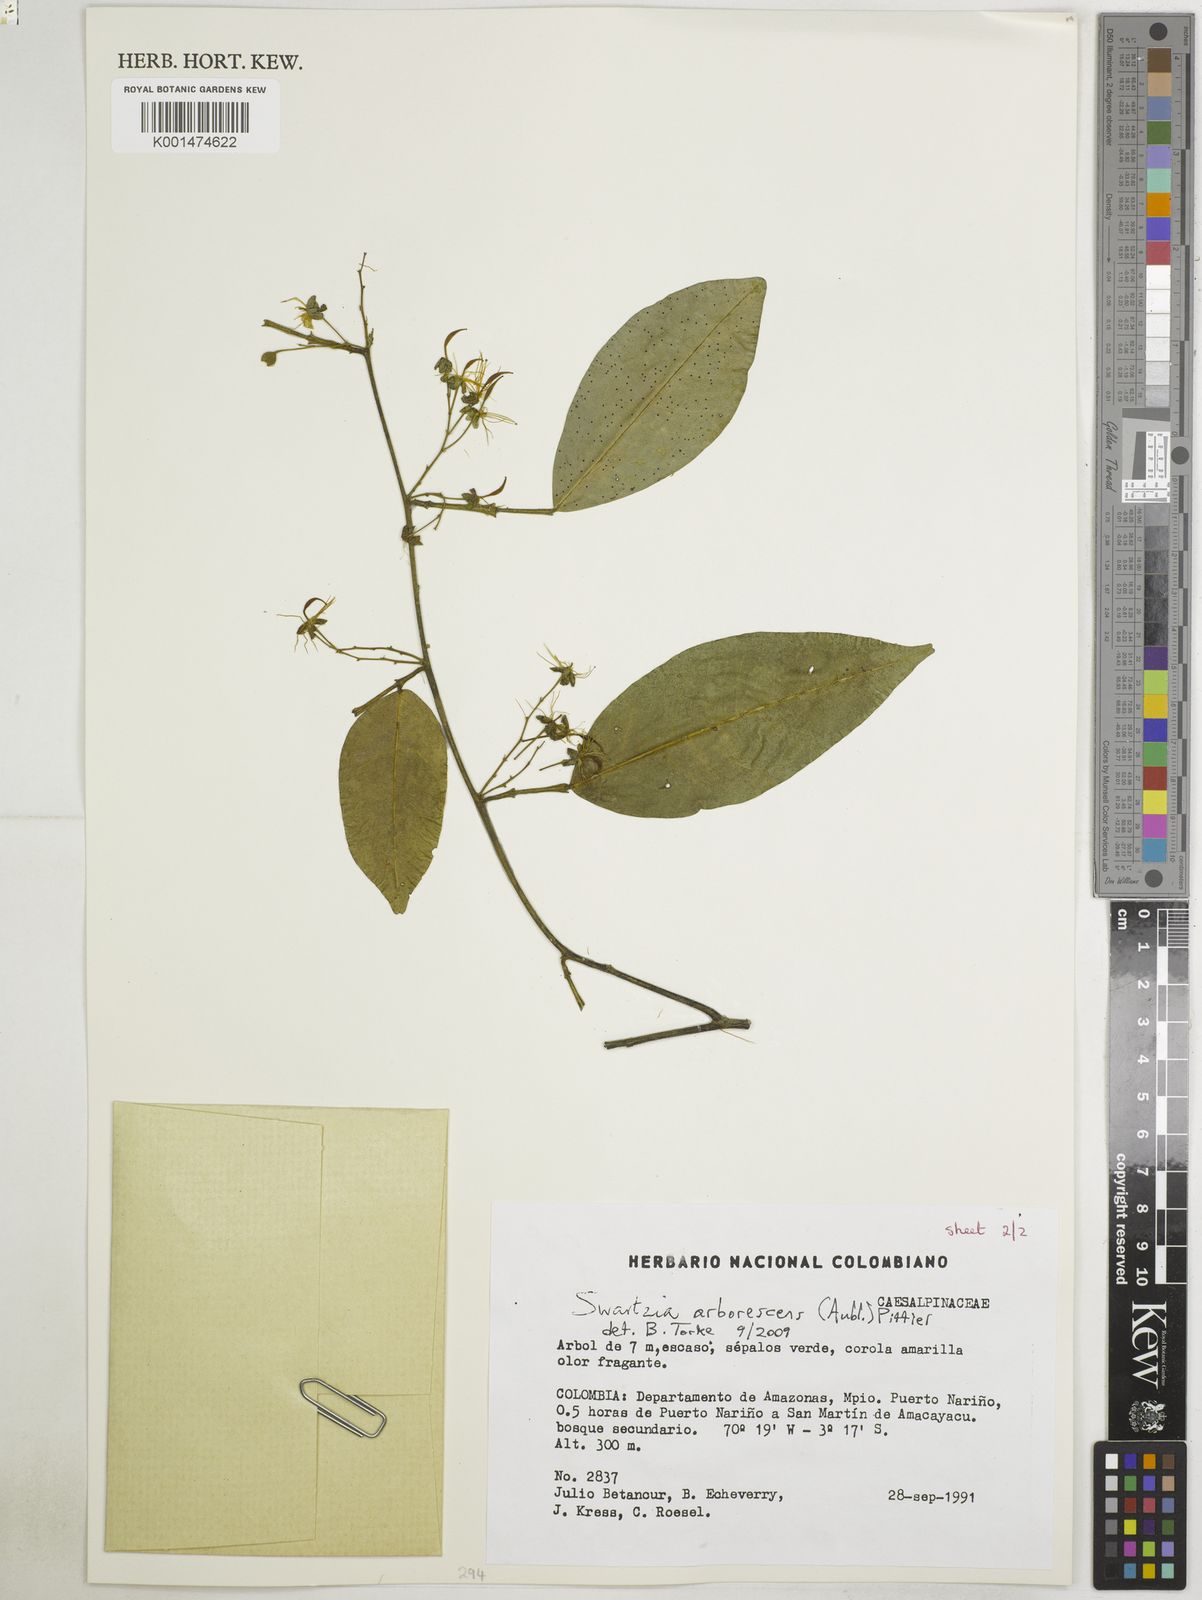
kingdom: Plantae
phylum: Tracheophyta
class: Magnoliopsida
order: Fabales
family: Fabaceae
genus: Swartzia
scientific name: Swartzia arborescens
